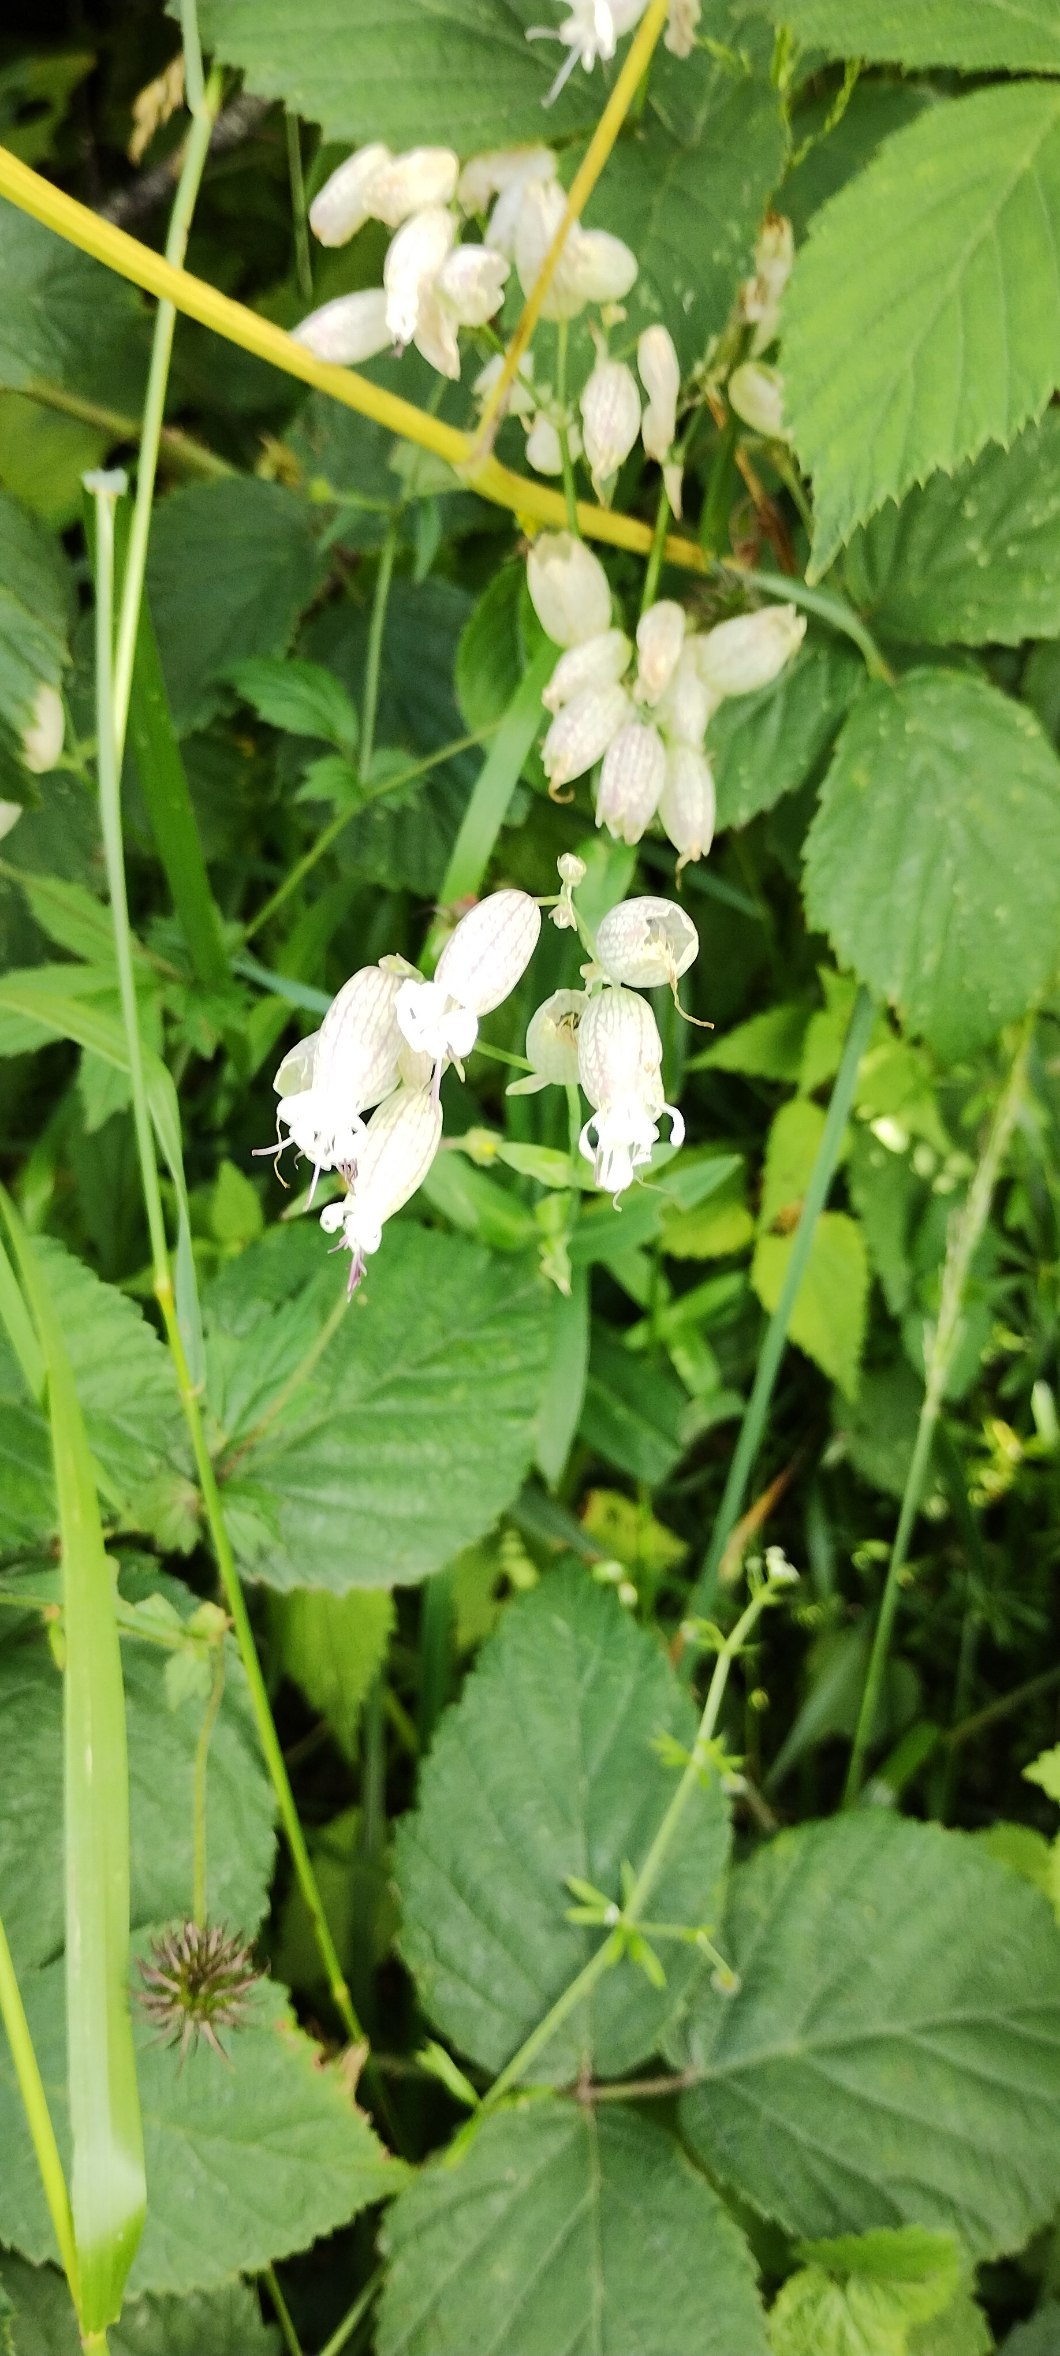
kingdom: Plantae
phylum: Tracheophyta
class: Magnoliopsida
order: Caryophyllales
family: Caryophyllaceae
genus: Silene
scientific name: Silene vulgaris
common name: Blæresmælde
